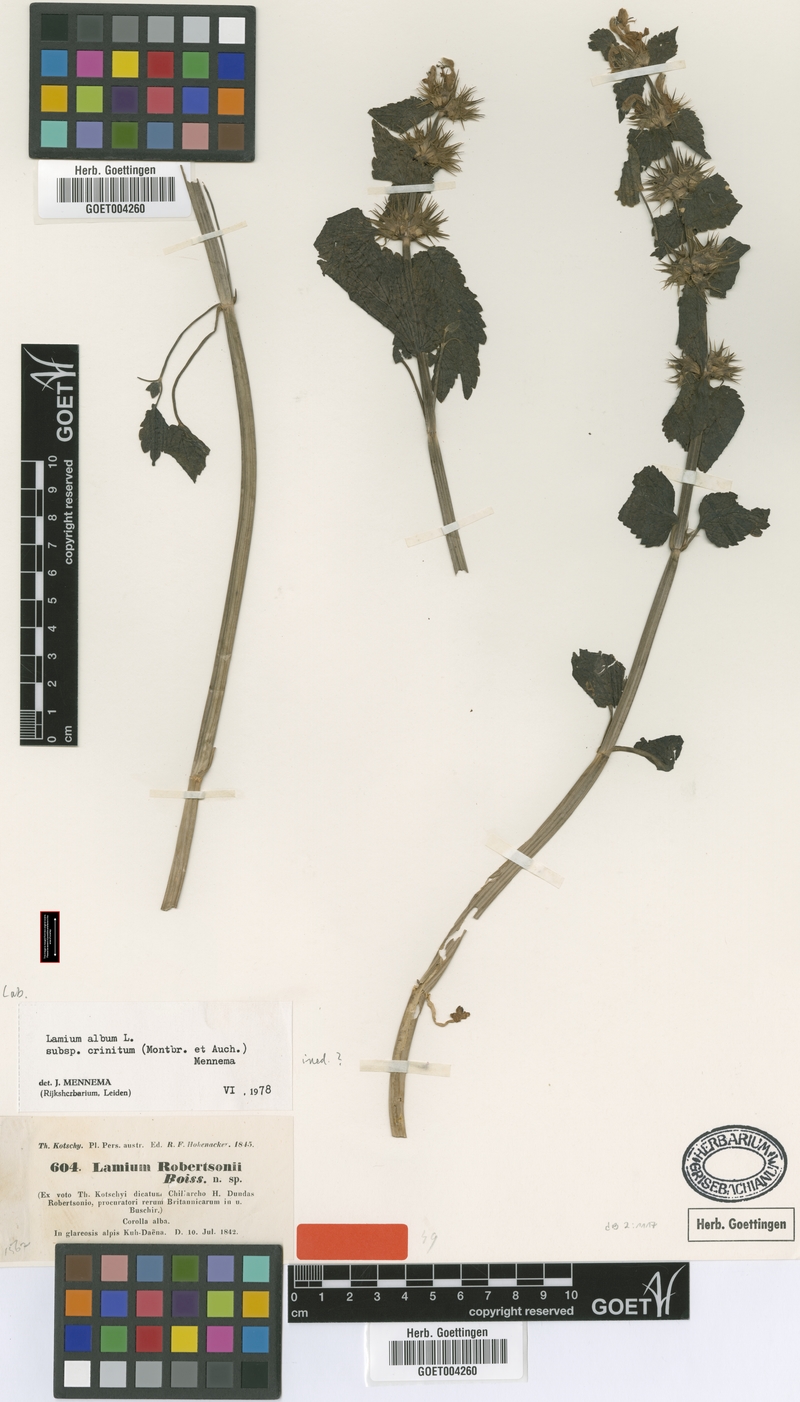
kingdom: Plantae
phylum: Tracheophyta
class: Magnoliopsida
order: Lamiales
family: Lamiaceae
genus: Lamium
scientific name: Lamium album
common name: White dead-nettle
